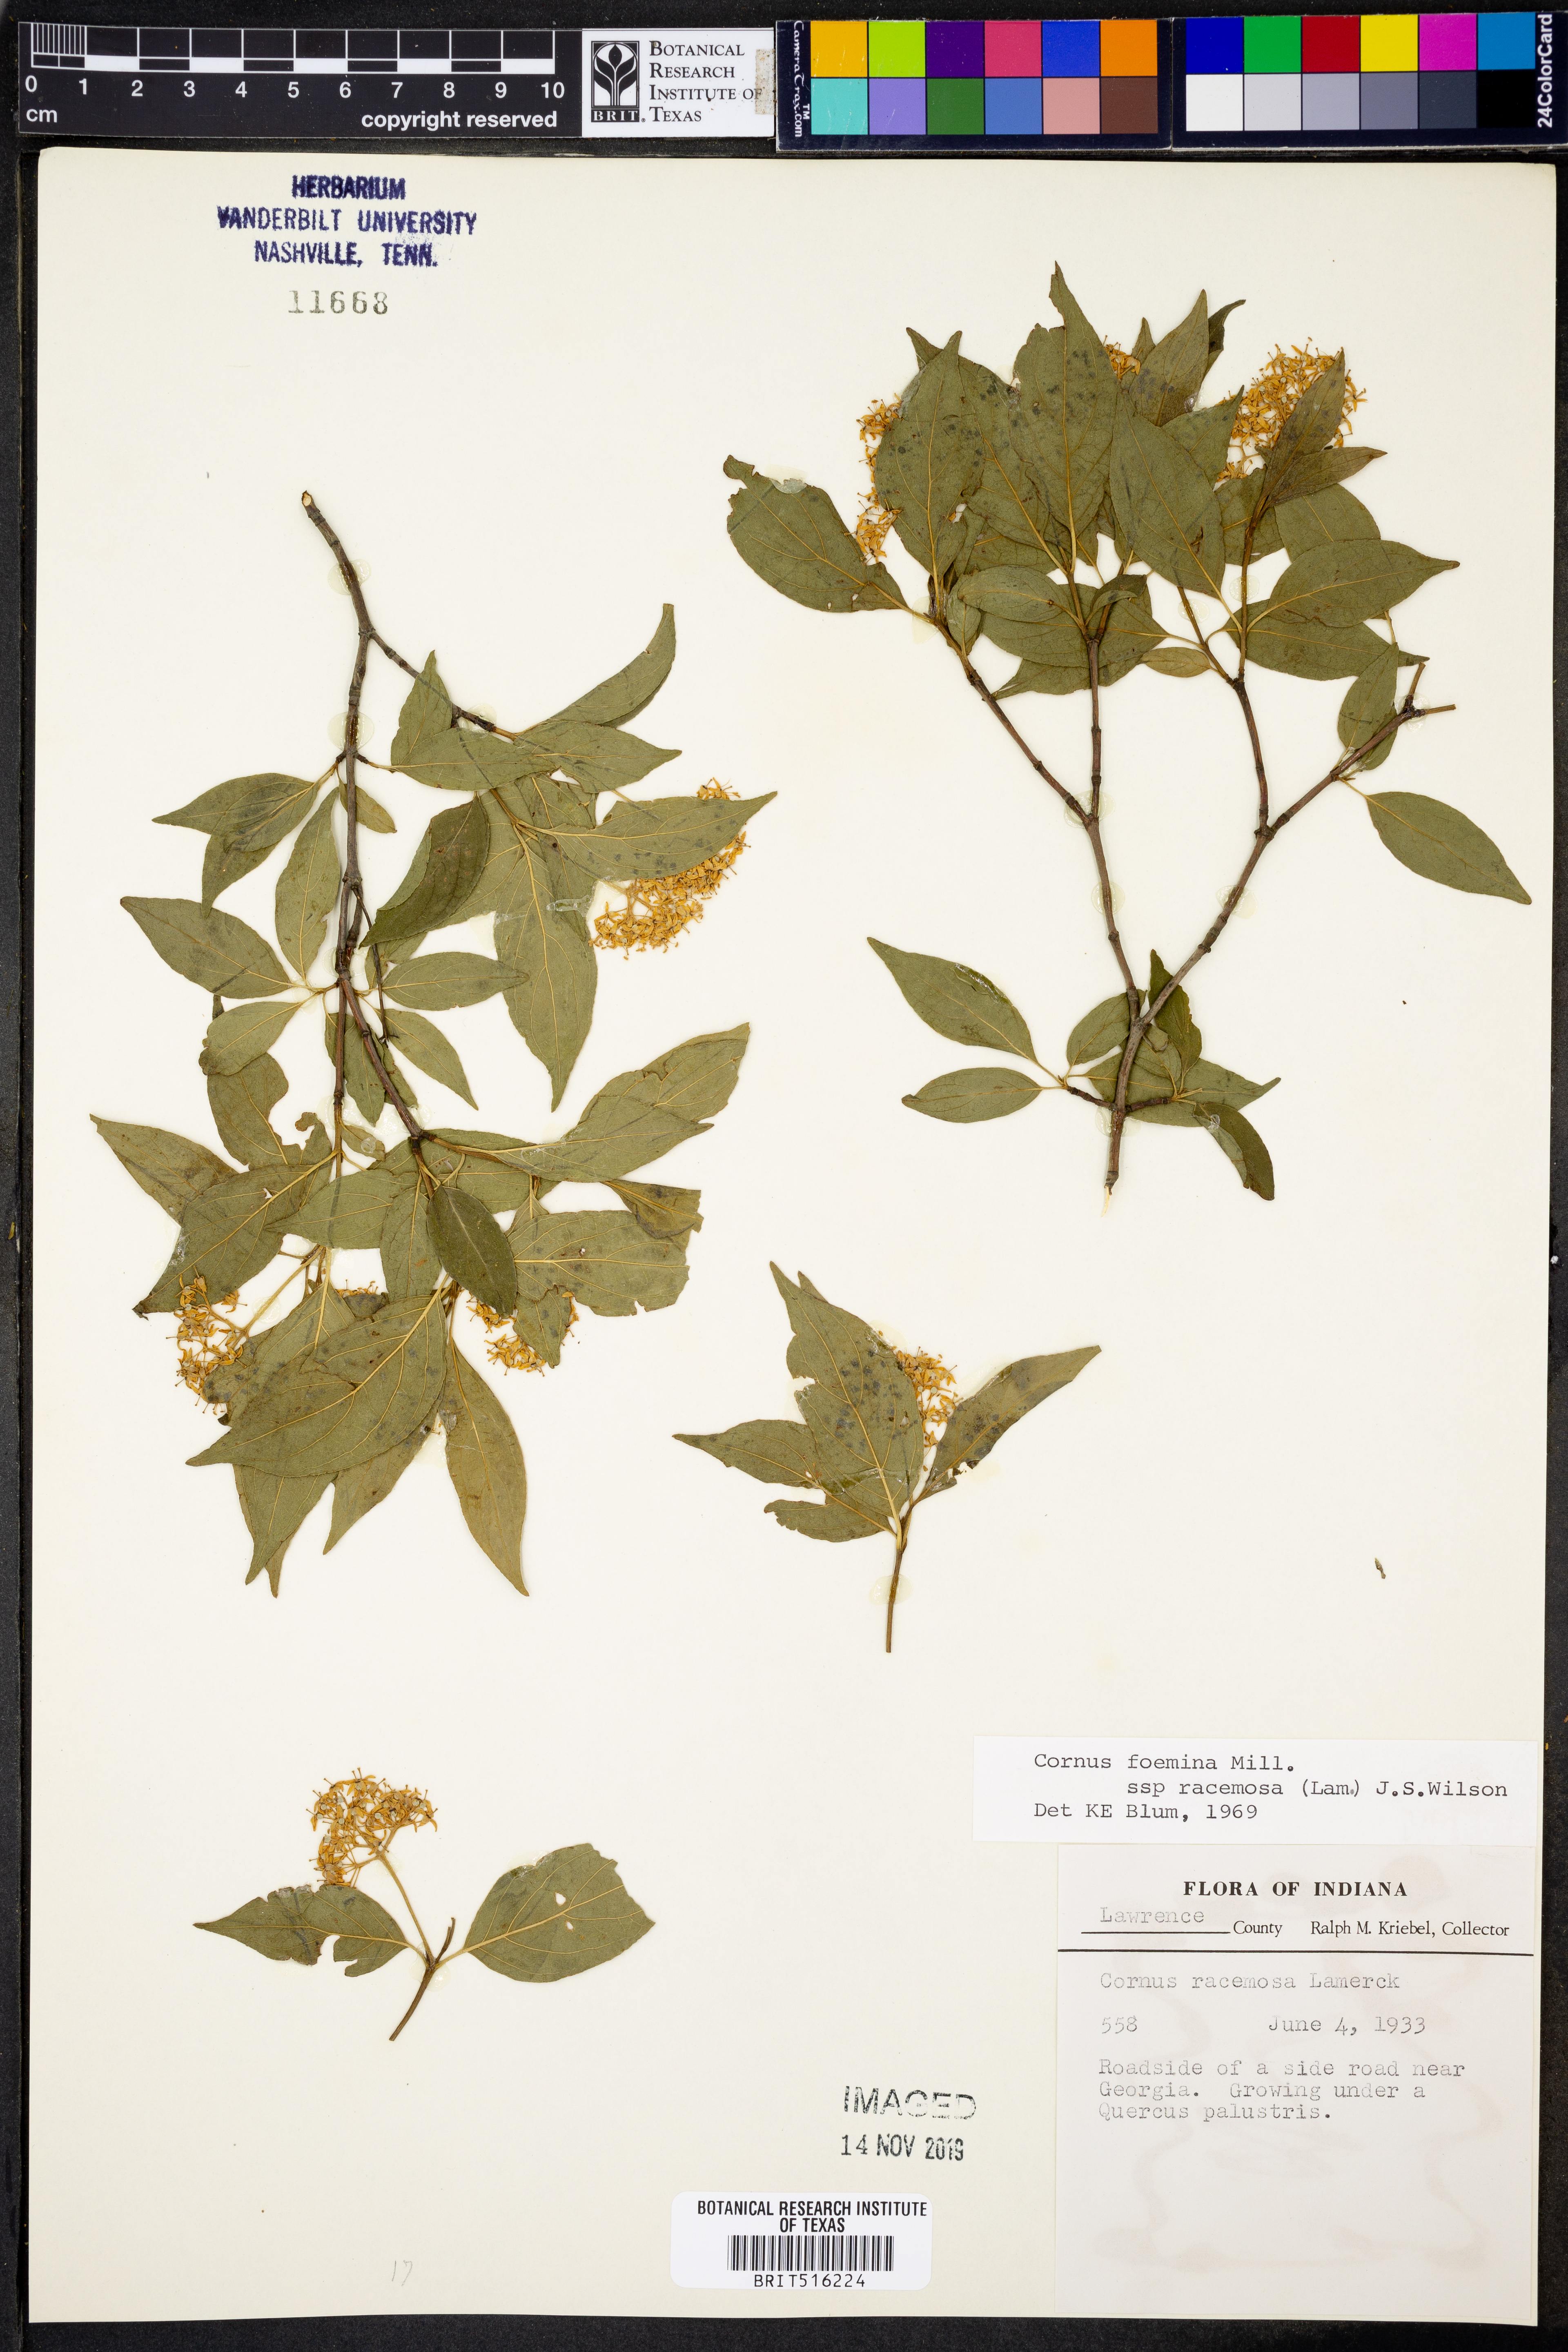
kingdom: Plantae
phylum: Tracheophyta
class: Magnoliopsida
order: Cornales
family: Cornaceae
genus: Cornus
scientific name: Cornus foemina
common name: Swamp dogwood
